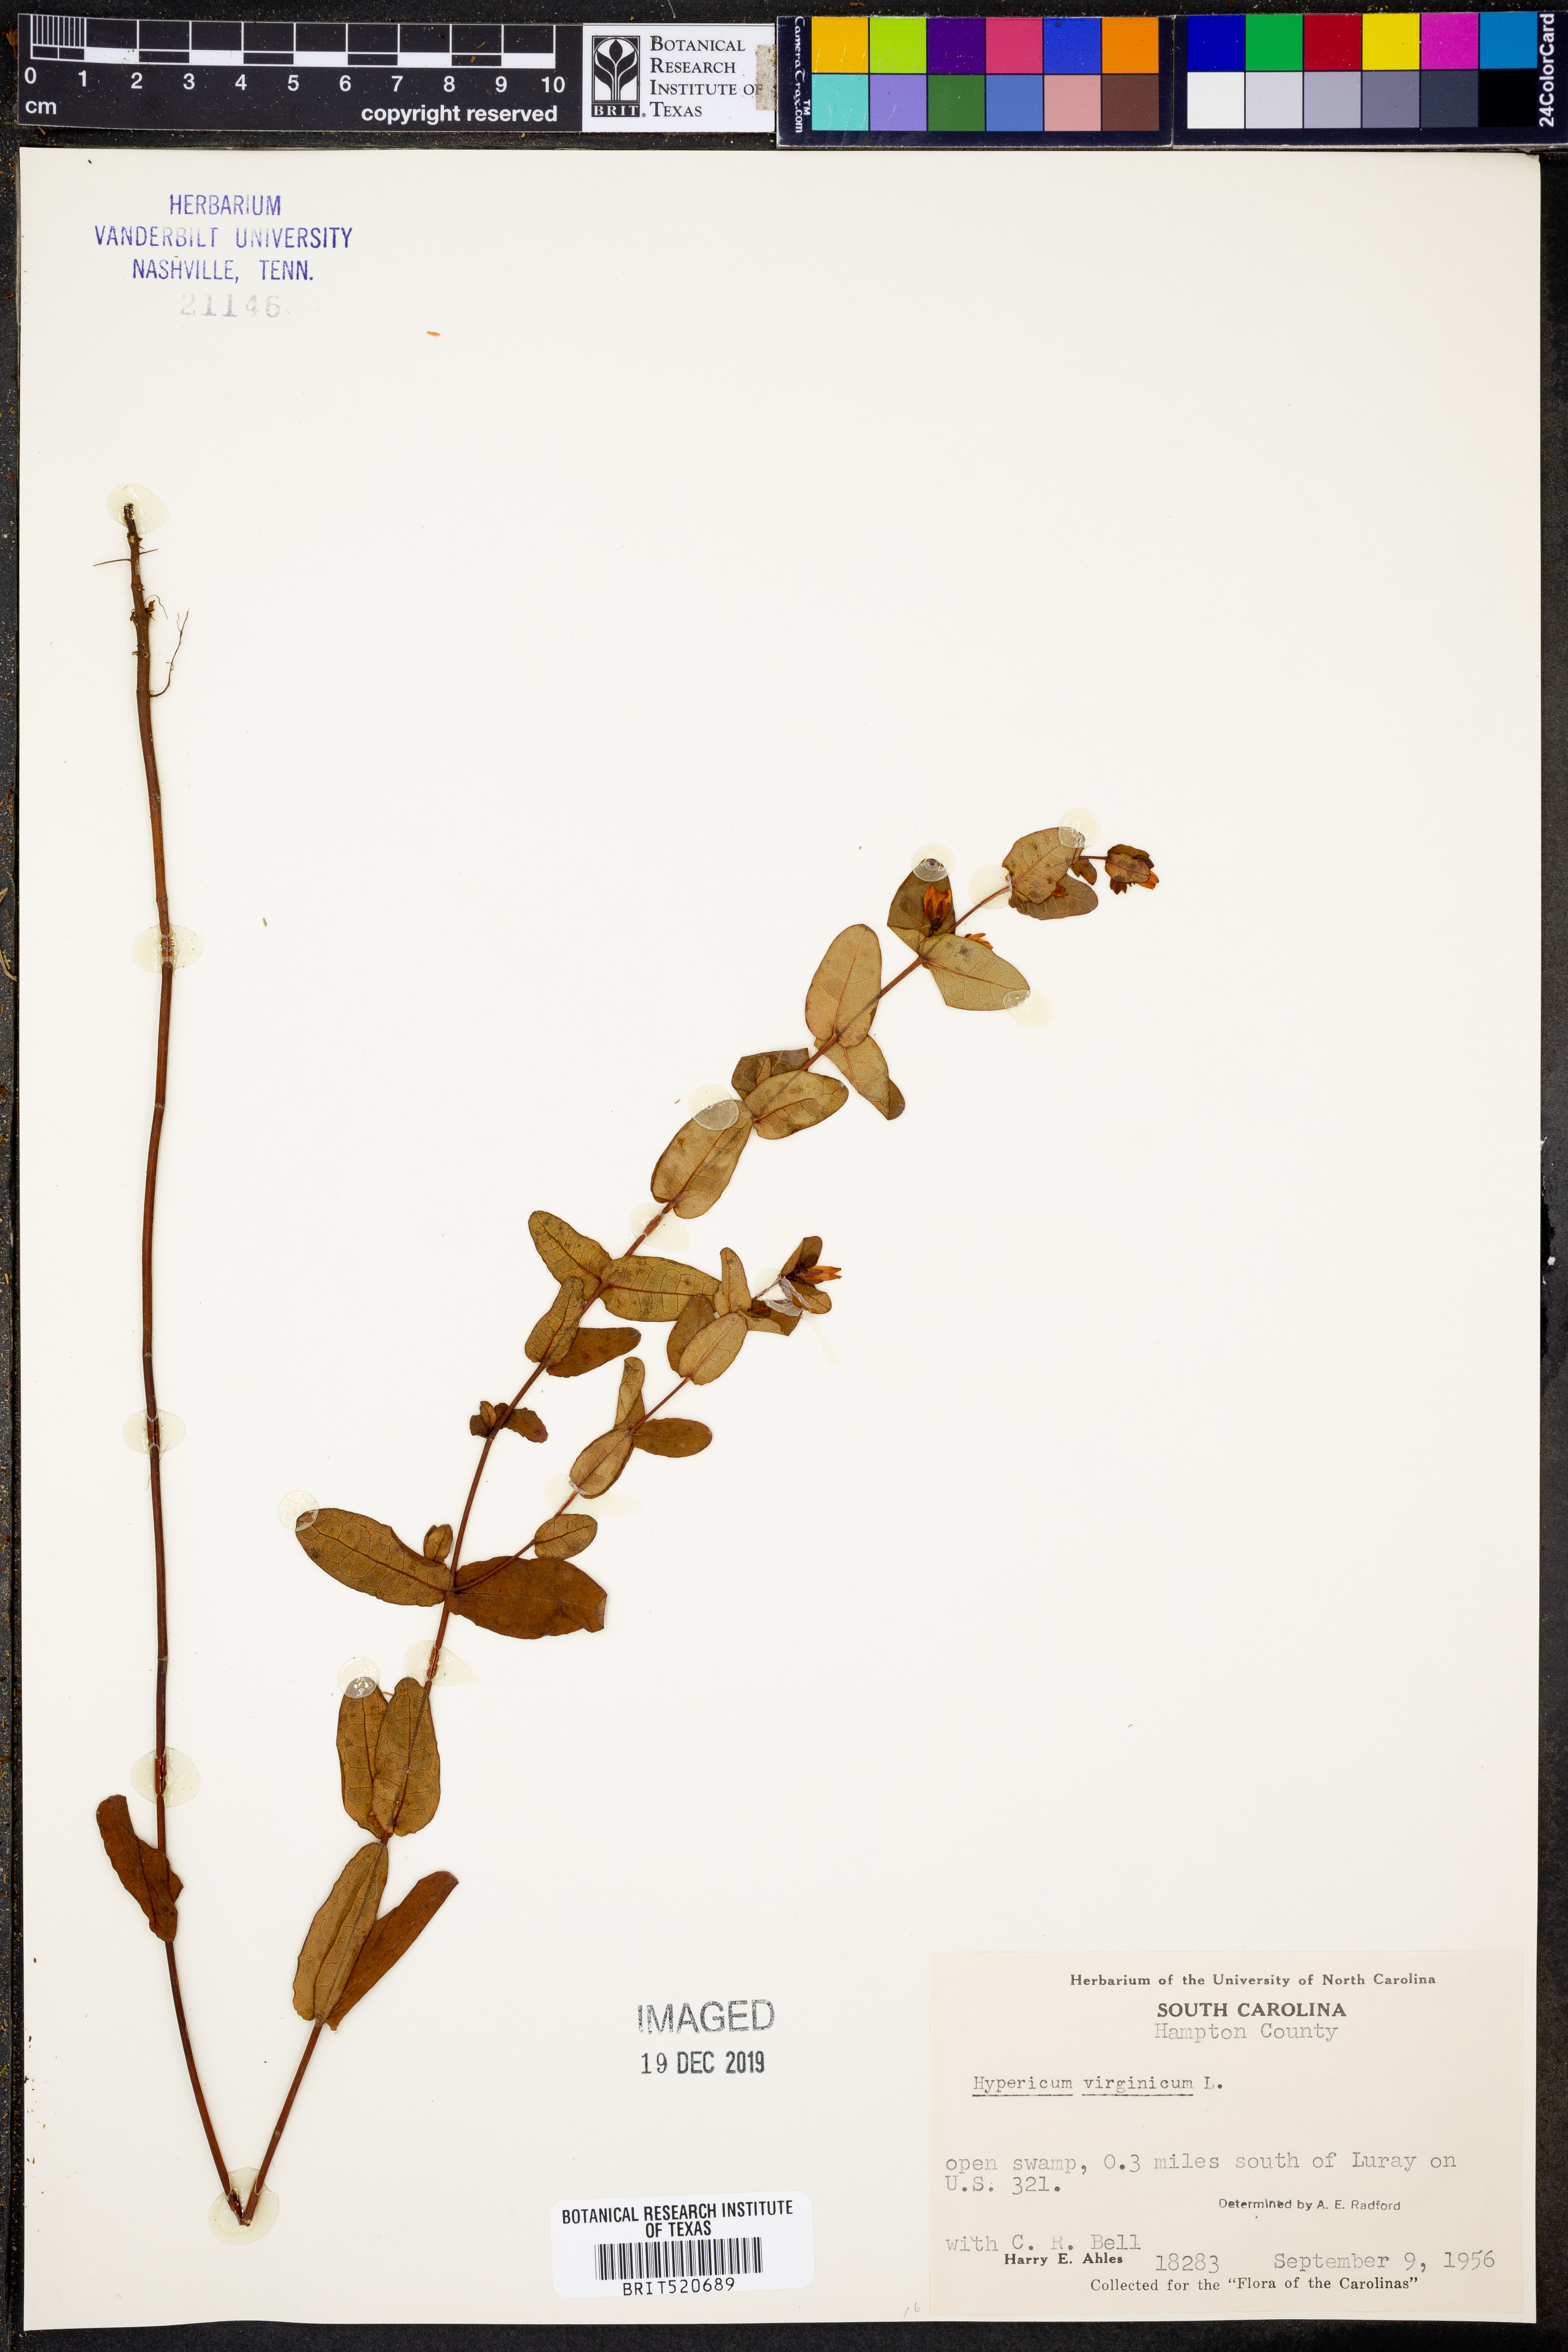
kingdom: Plantae
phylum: Tracheophyta
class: Magnoliopsida
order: Malpighiales
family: Hypericaceae
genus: Triadenum
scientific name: Triadenum virginicum
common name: Marsh st. john's-wort
